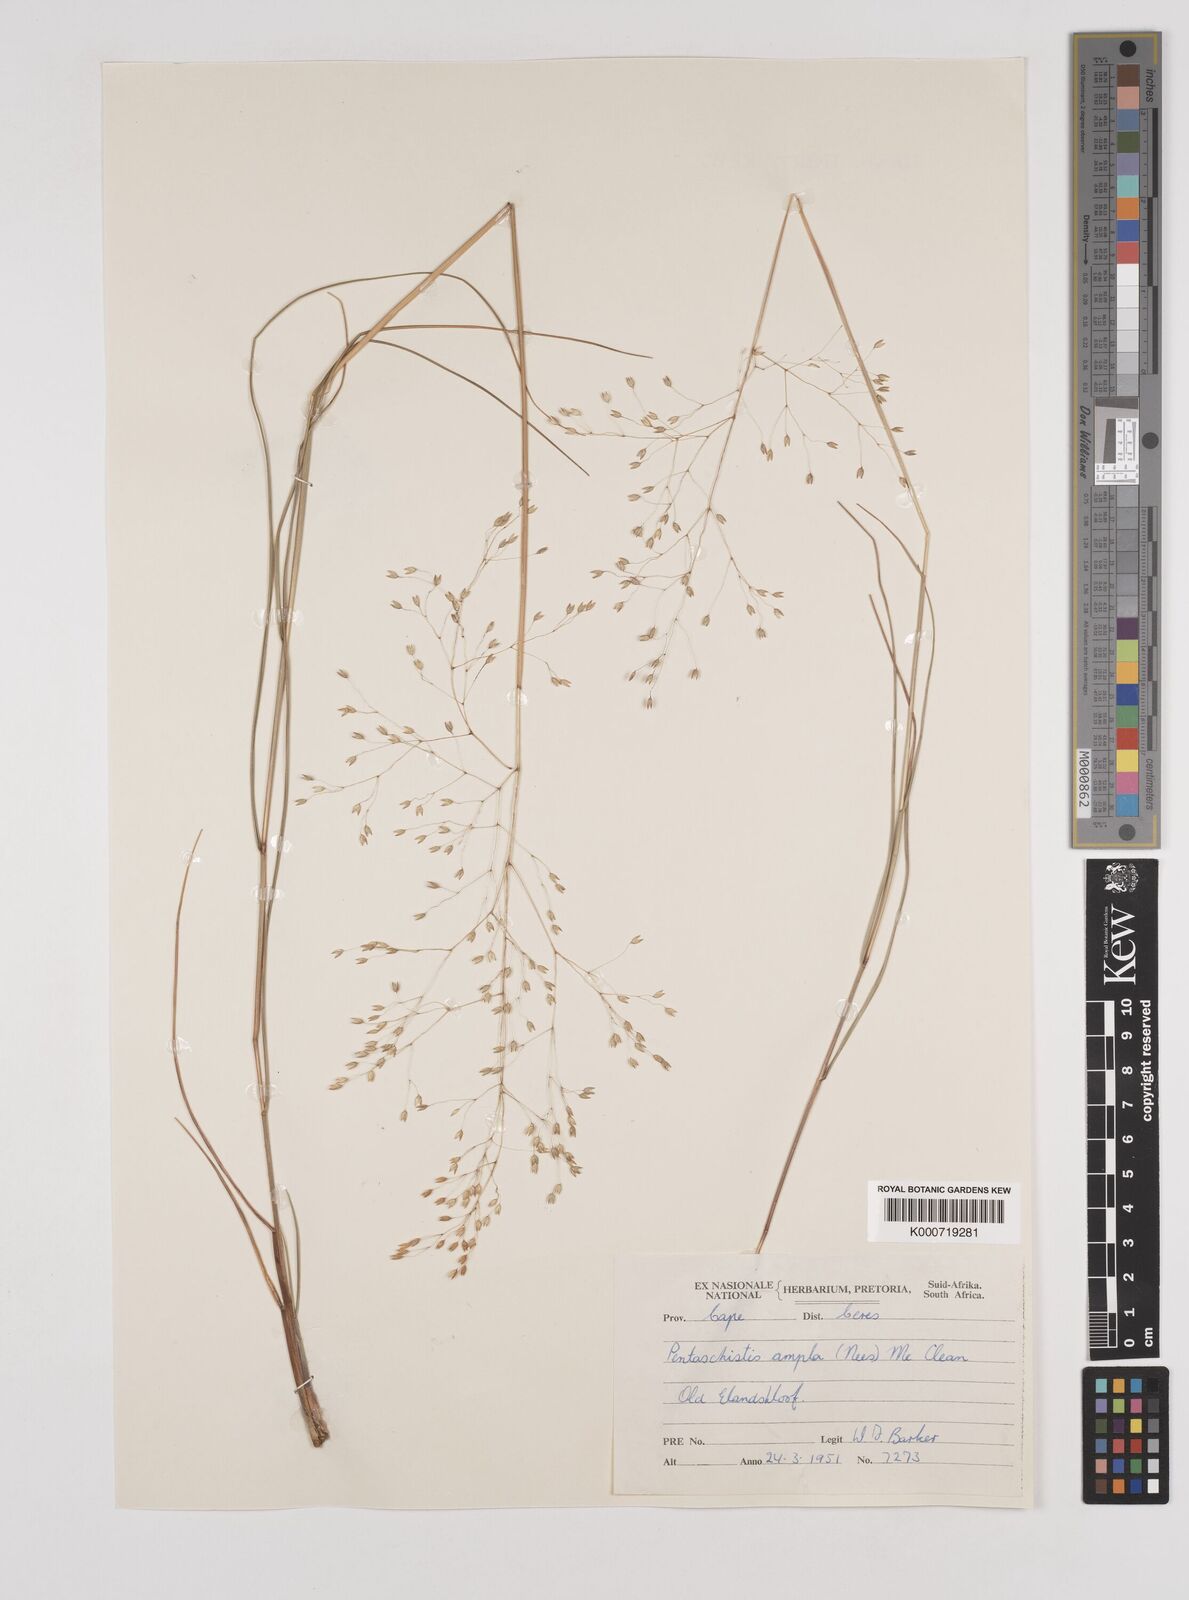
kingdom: Plantae
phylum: Tracheophyta
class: Liliopsida
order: Poales
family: Poaceae
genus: Pentameris
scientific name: Pentameris ampla
